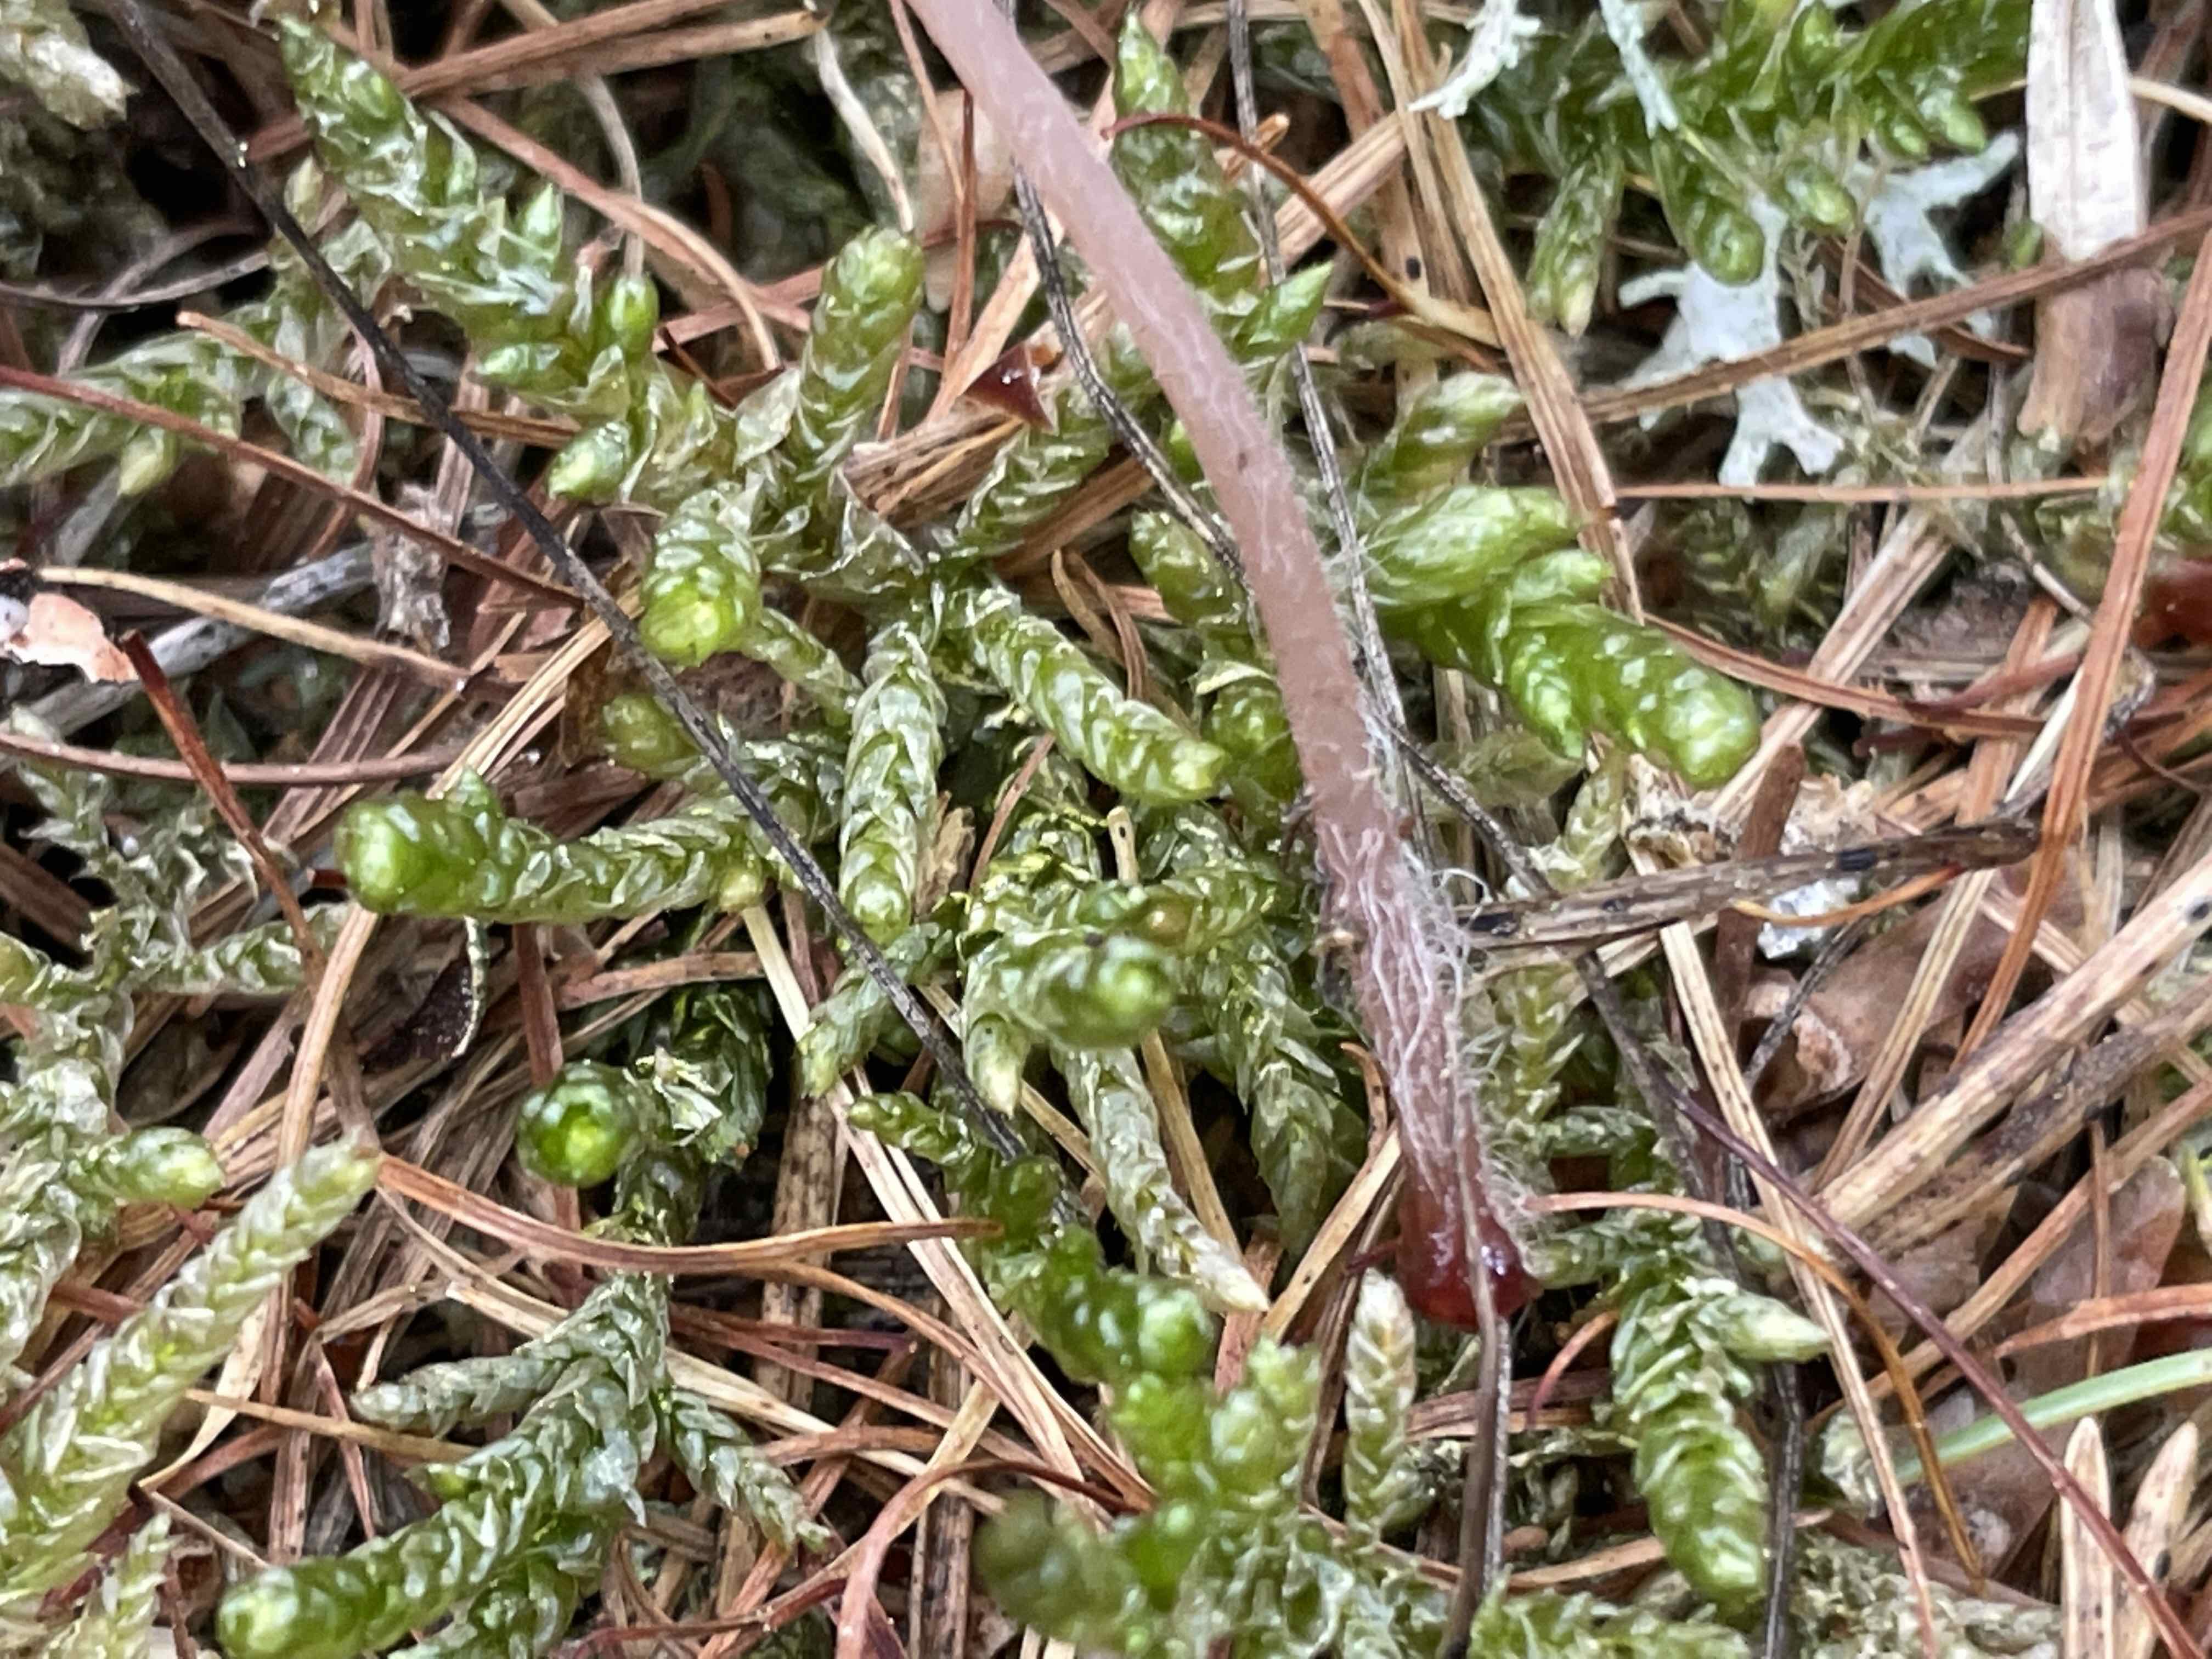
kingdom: Fungi
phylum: Basidiomycota
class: Agaricomycetes
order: Agaricales
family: Mycenaceae
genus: Mycena
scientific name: Mycena sanguinolenta
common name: rødmælket huesvamp
